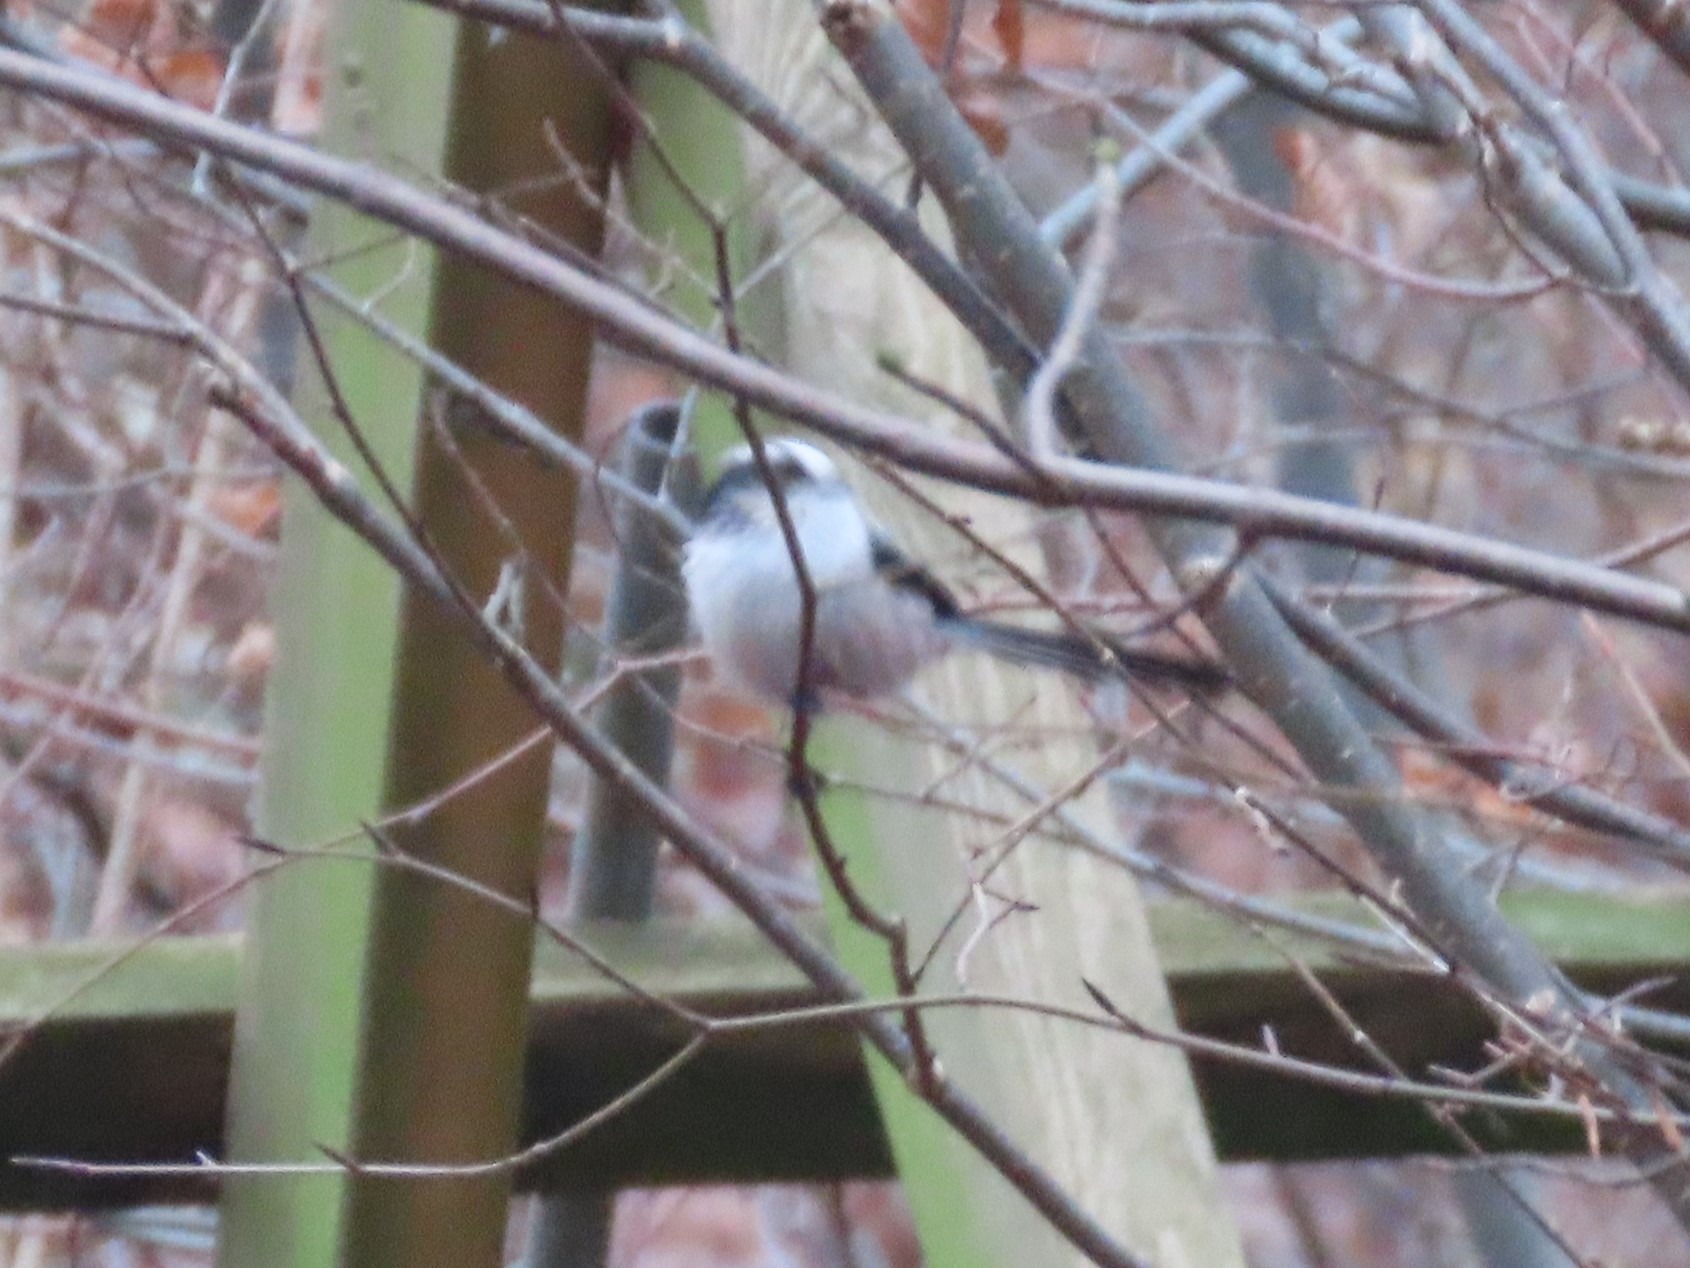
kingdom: Animalia
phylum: Chordata
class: Aves
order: Passeriformes
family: Aegithalidae
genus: Aegithalos
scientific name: Aegithalos caudatus
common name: Halemejse
